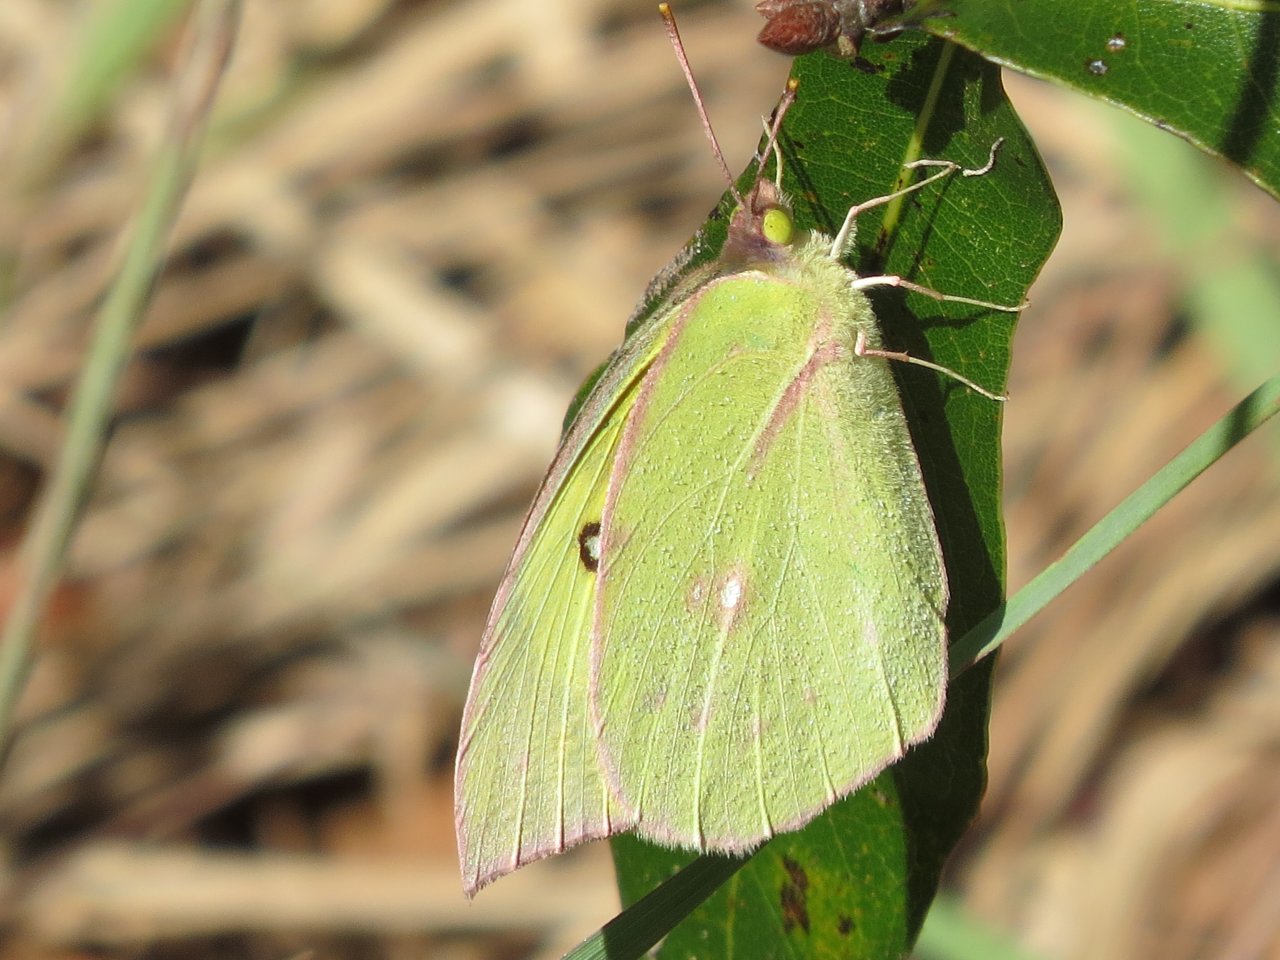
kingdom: Animalia
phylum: Arthropoda
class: Insecta
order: Lepidoptera
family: Pieridae
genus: Kricogonia
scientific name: Kricogonia lyside
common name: Lyside Sulphur
